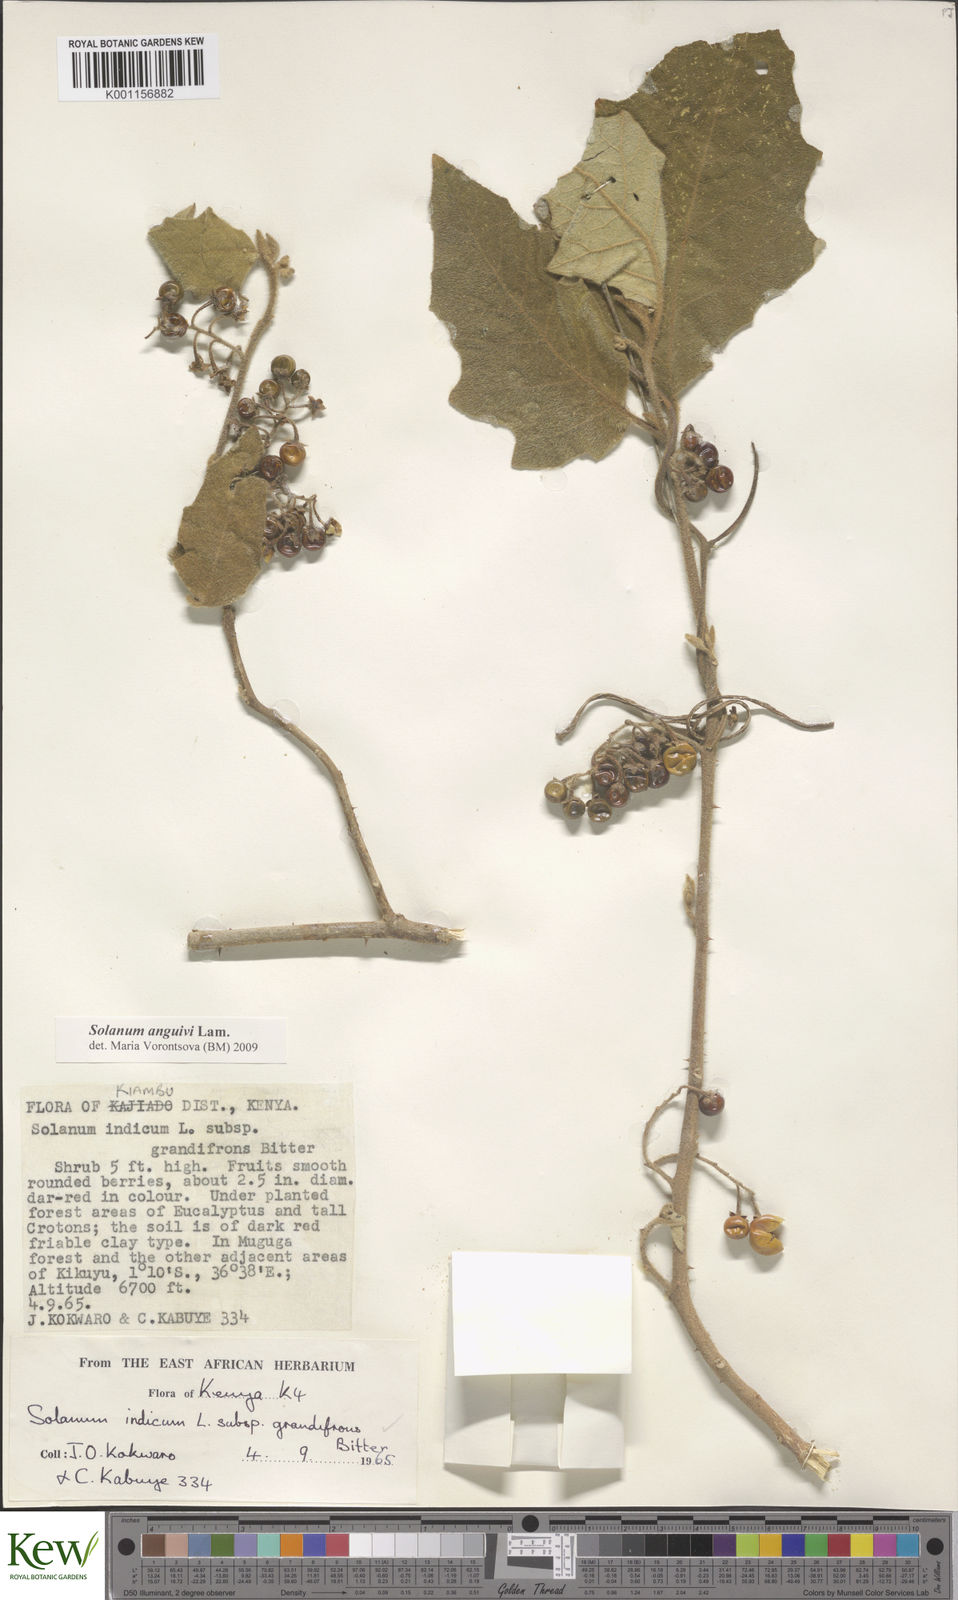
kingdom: Plantae
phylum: Tracheophyta
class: Magnoliopsida
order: Solanales
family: Solanaceae
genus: Solanum
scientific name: Solanum anguivi
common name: Forest bitterberry
